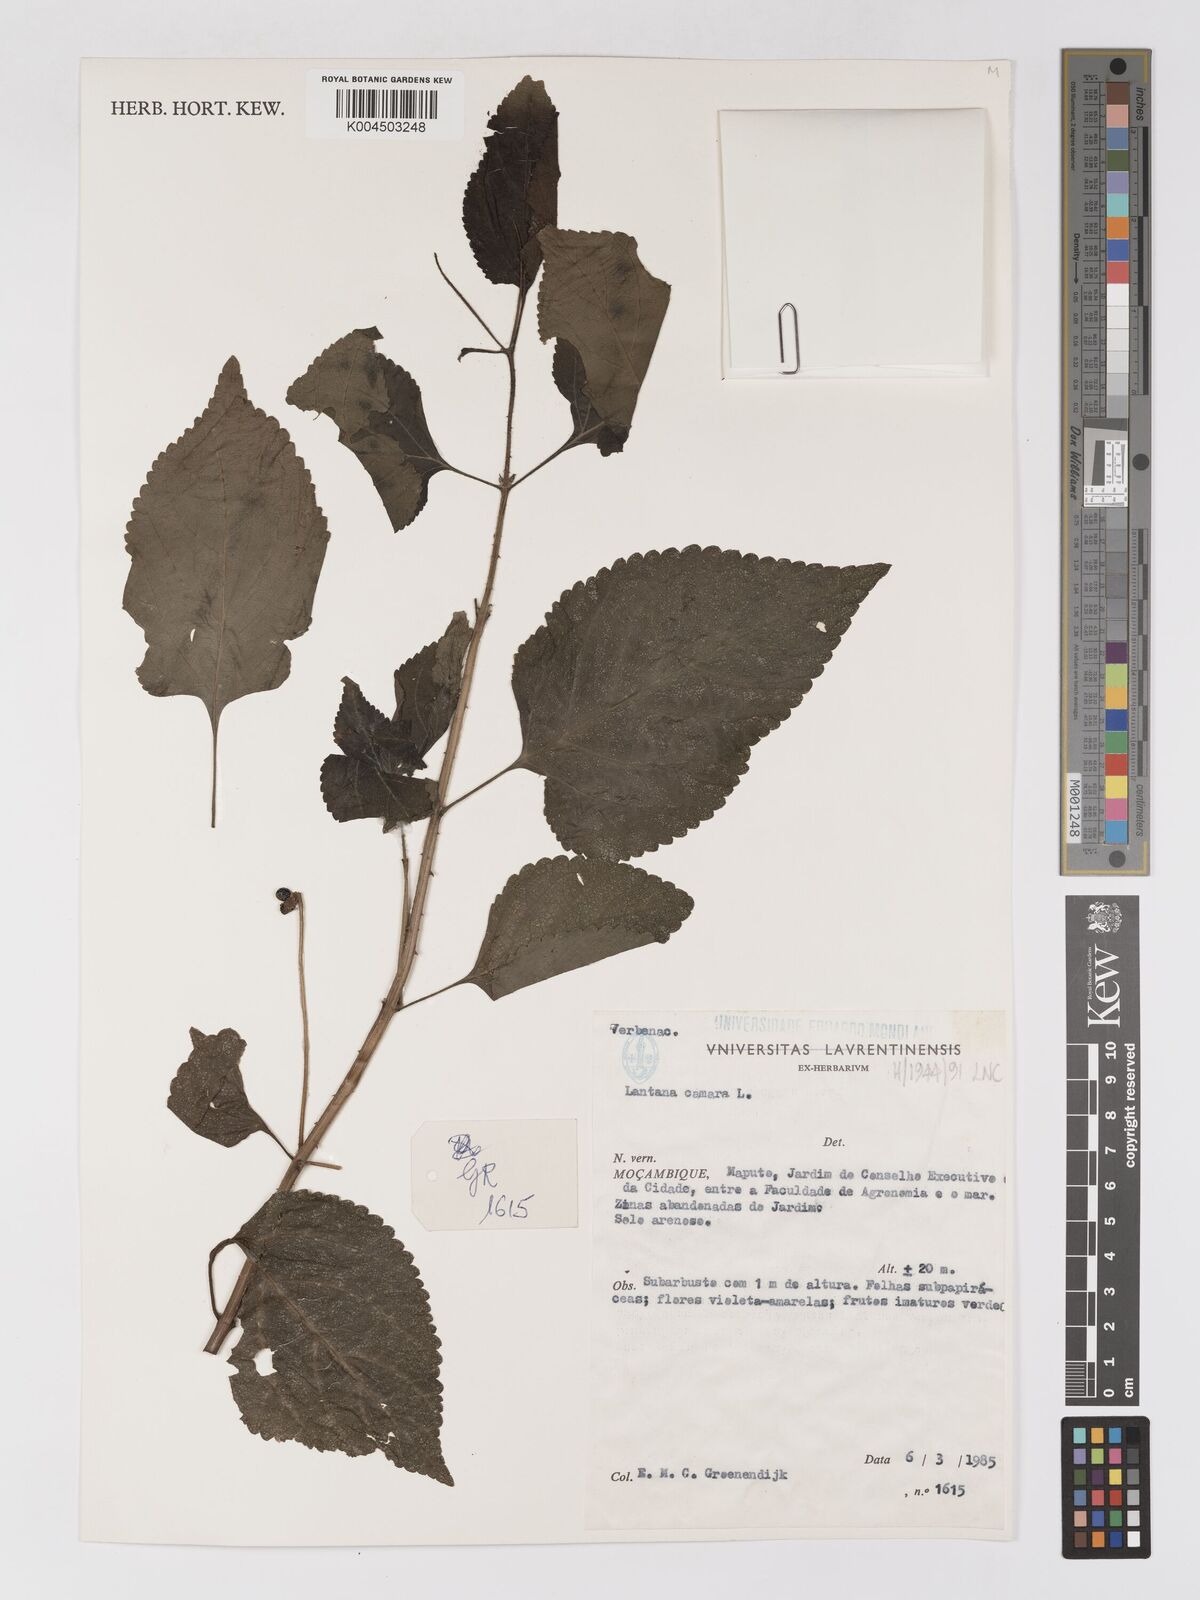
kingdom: Plantae
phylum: Tracheophyta
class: Magnoliopsida
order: Lamiales
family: Verbenaceae
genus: Lantana
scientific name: Lantana camara
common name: Lantana
